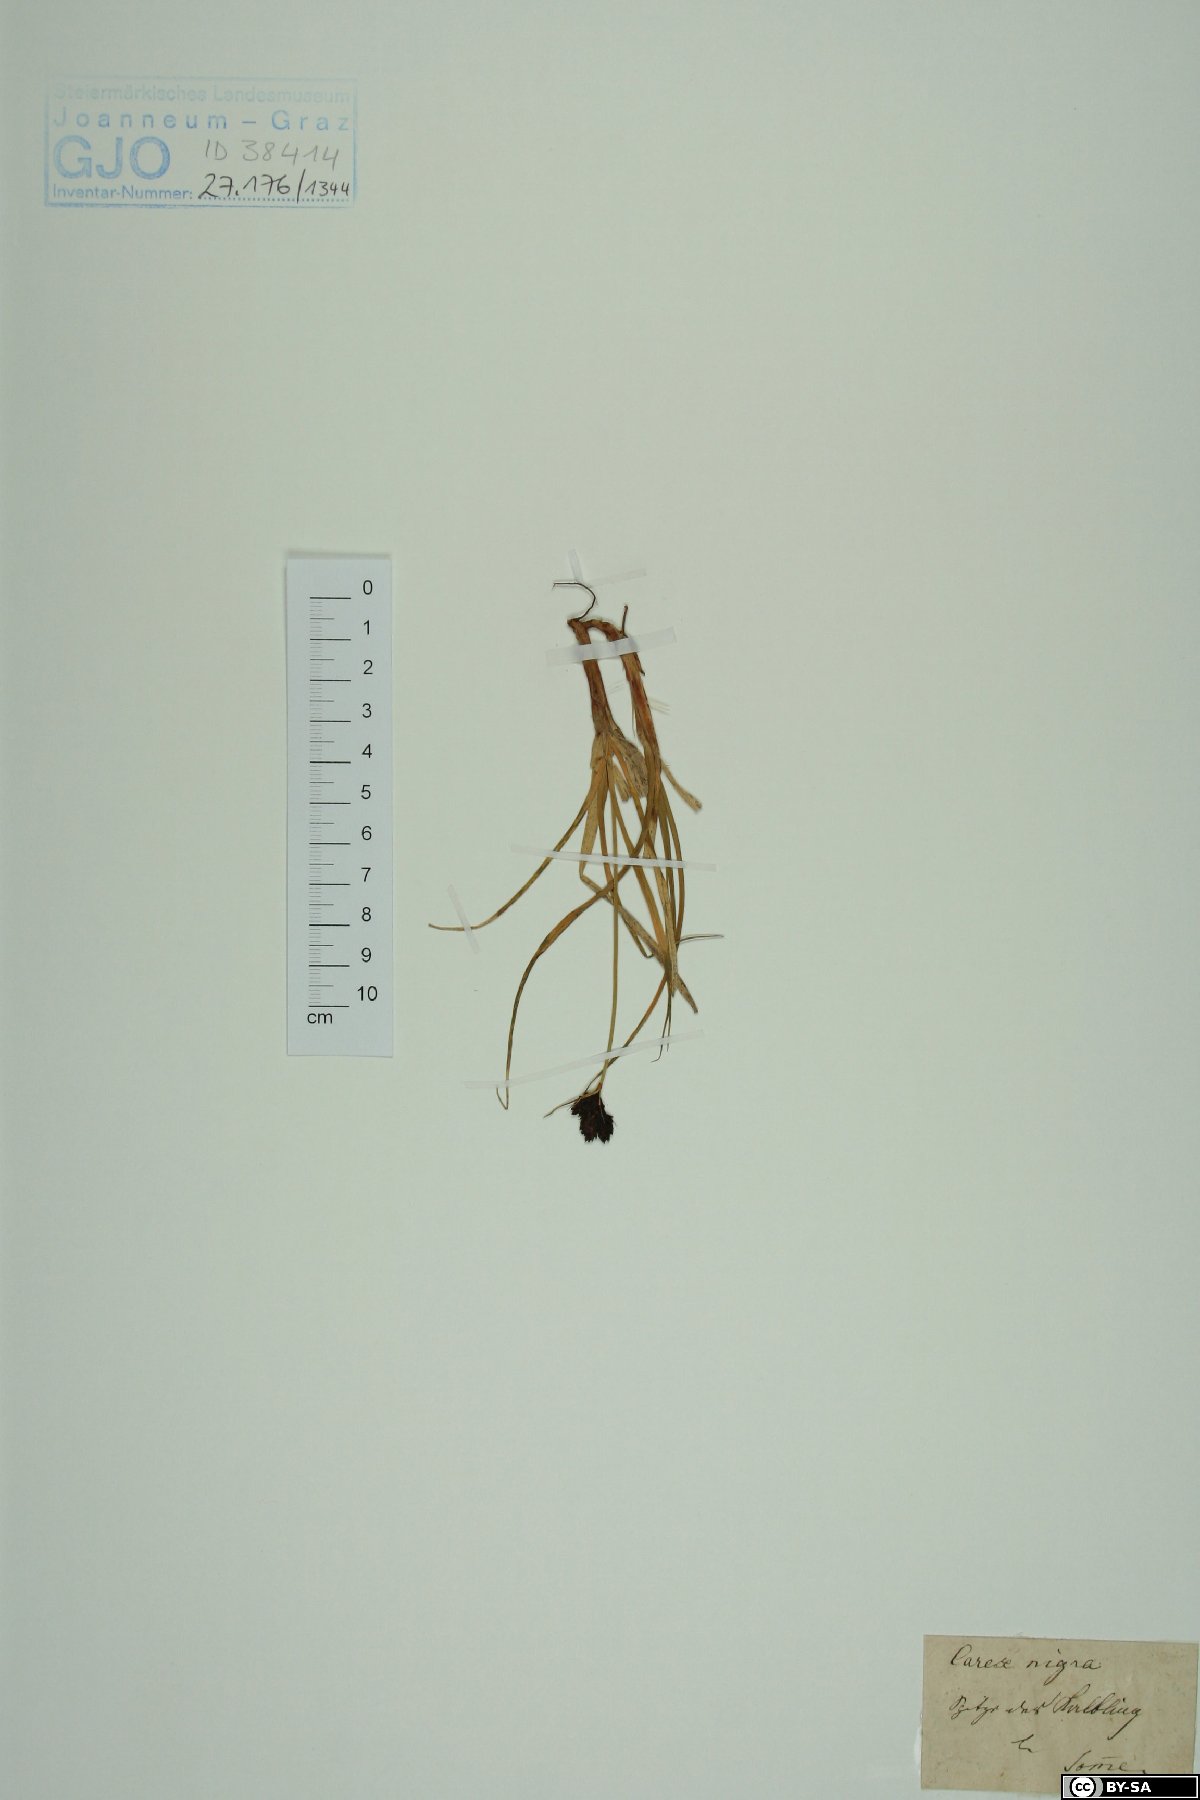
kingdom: Plantae
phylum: Tracheophyta
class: Liliopsida
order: Poales
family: Cyperaceae
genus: Carex
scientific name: Carex nigra
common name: Common sedge
